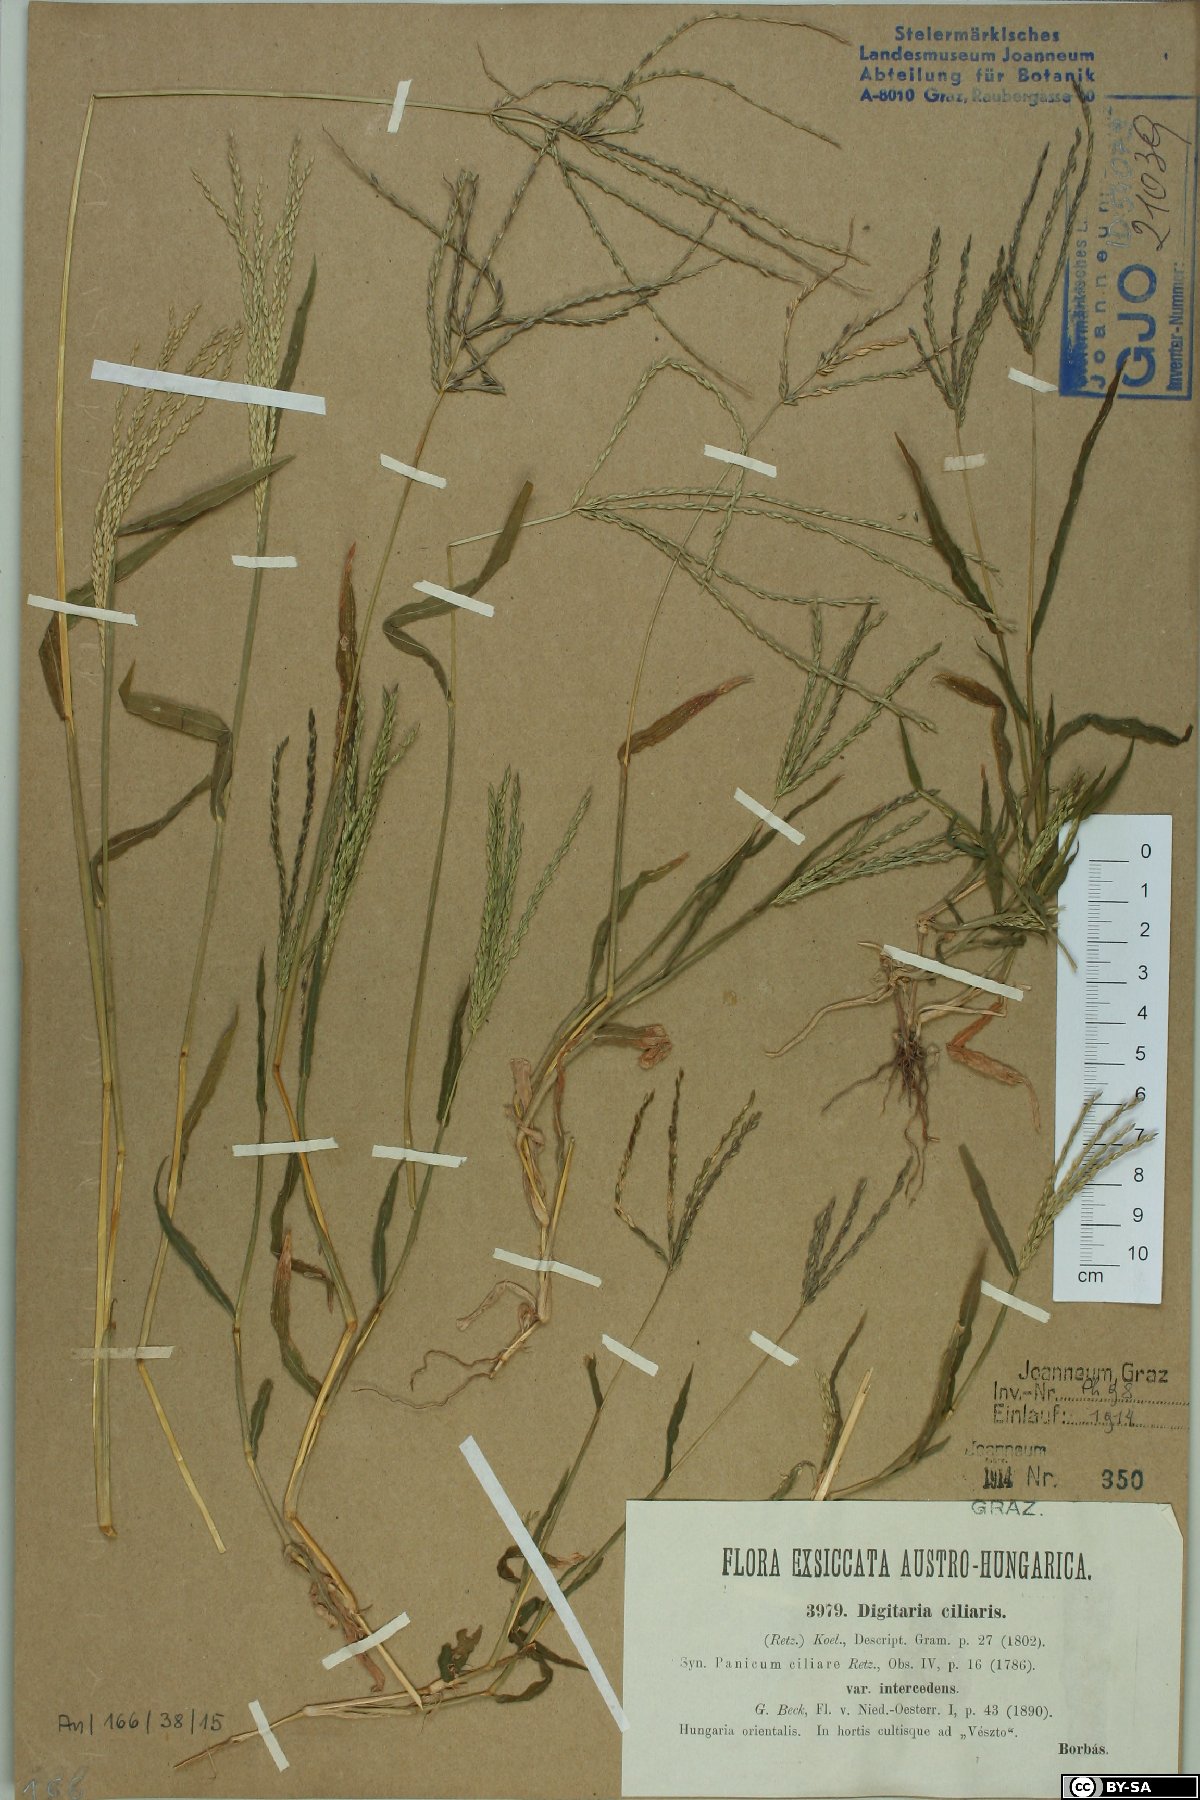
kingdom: Plantae
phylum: Tracheophyta
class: Liliopsida
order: Poales
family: Poaceae
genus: Digitaria
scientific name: Digitaria sanguinalis
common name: Hairy crabgrass
